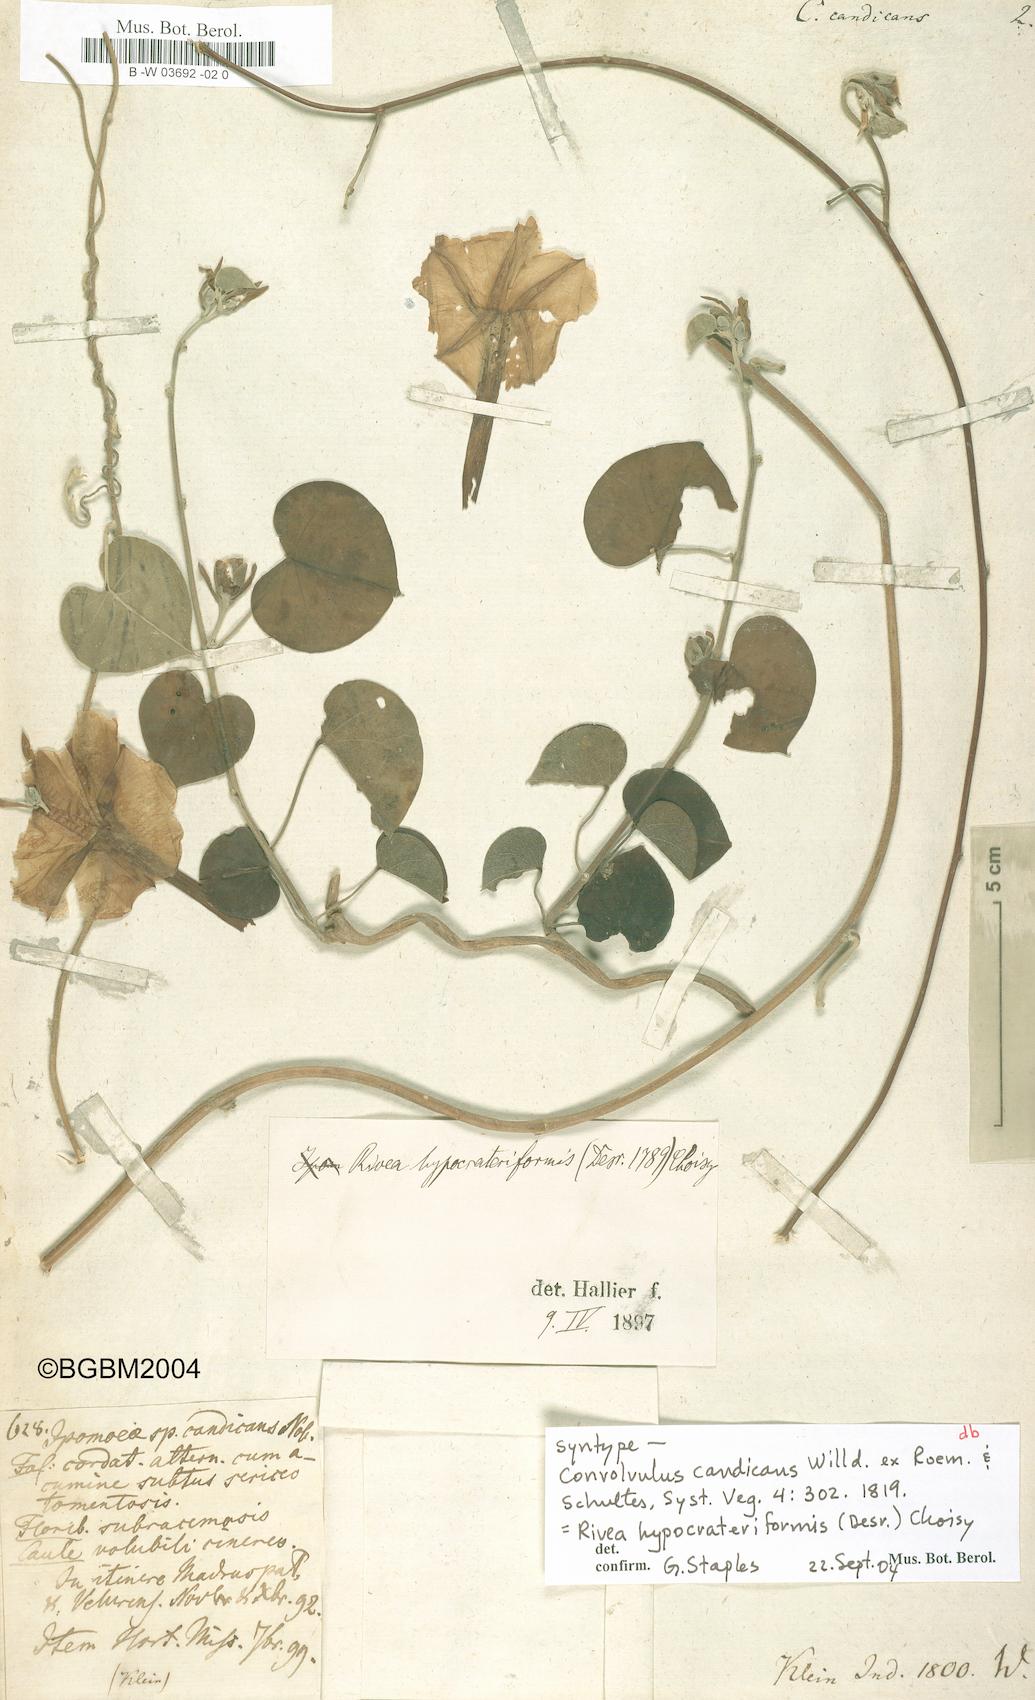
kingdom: Plantae
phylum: Tracheophyta
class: Magnoliopsida
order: Solanales
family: Convolvulaceae
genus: Convolvulus
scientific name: Convolvulus candicans
